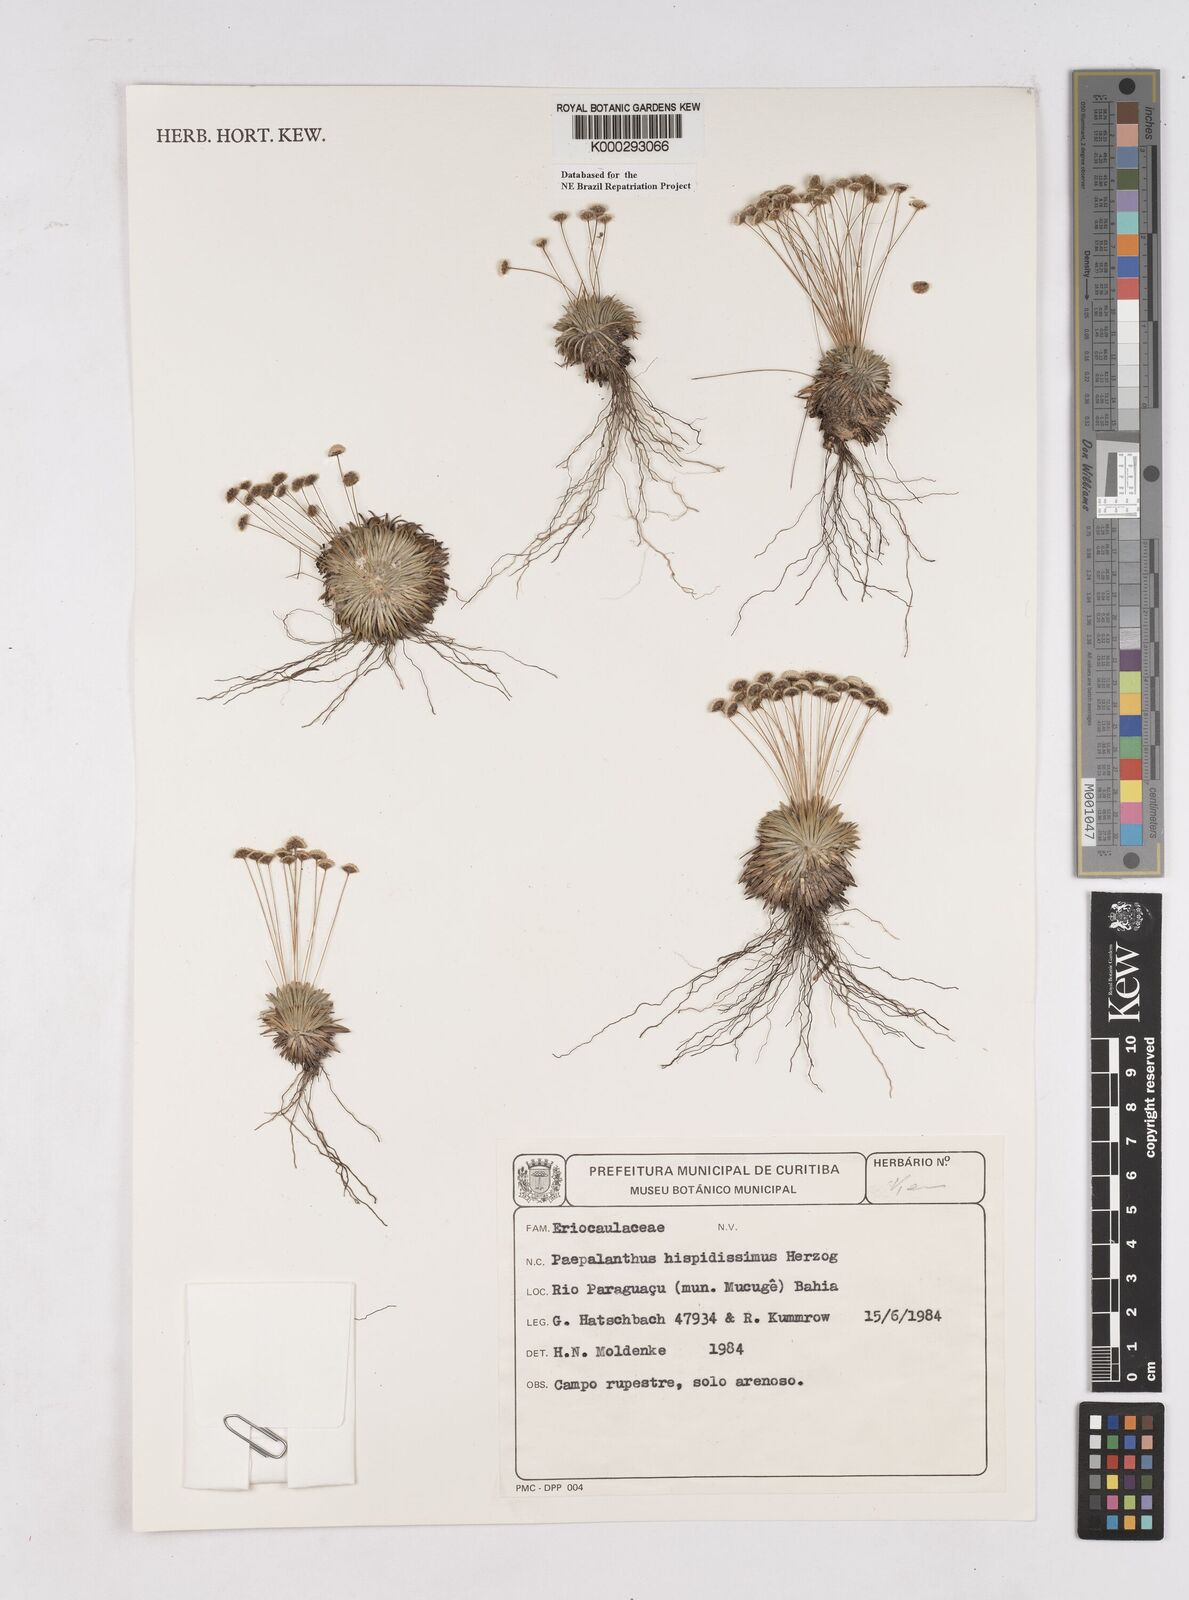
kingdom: Plantae
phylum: Tracheophyta
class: Liliopsida
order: Poales
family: Eriocaulaceae
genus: Paepalanthus
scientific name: Paepalanthus pulvinatus
